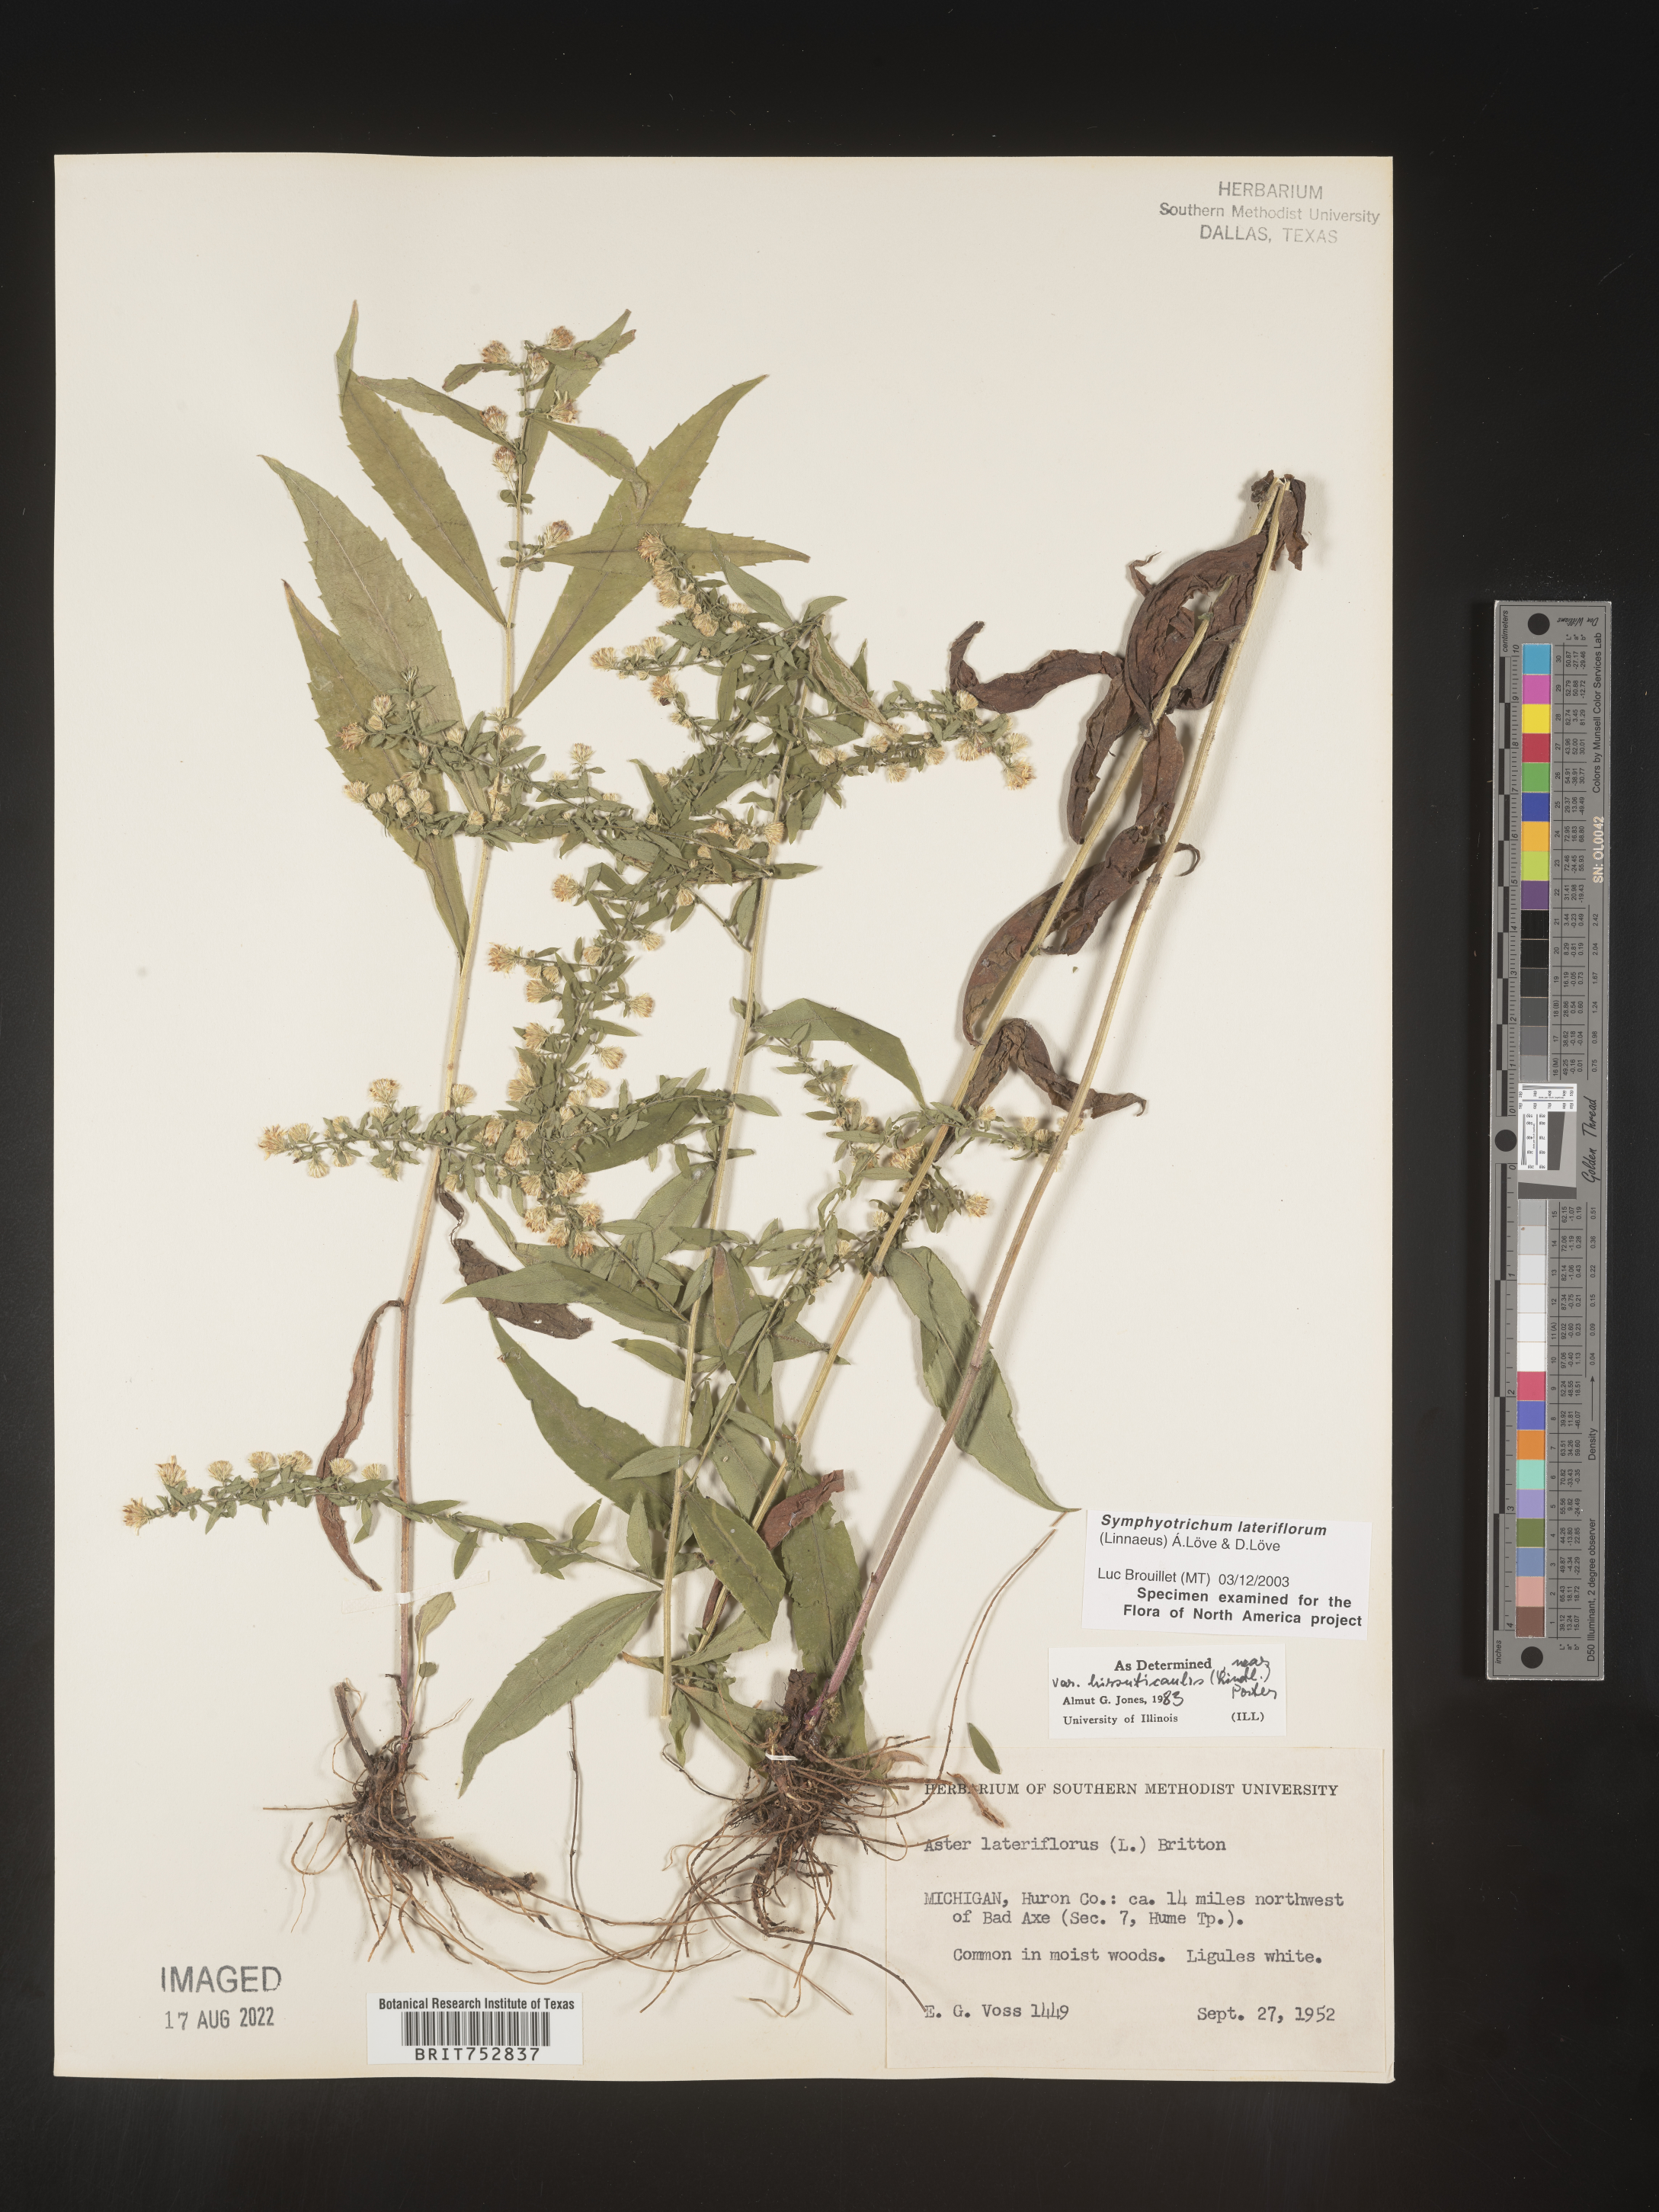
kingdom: Plantae
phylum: Tracheophyta
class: Magnoliopsida
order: Asterales
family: Asteraceae
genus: Symphyotrichum
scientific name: Symphyotrichum lateriflorum
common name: Calico aster
